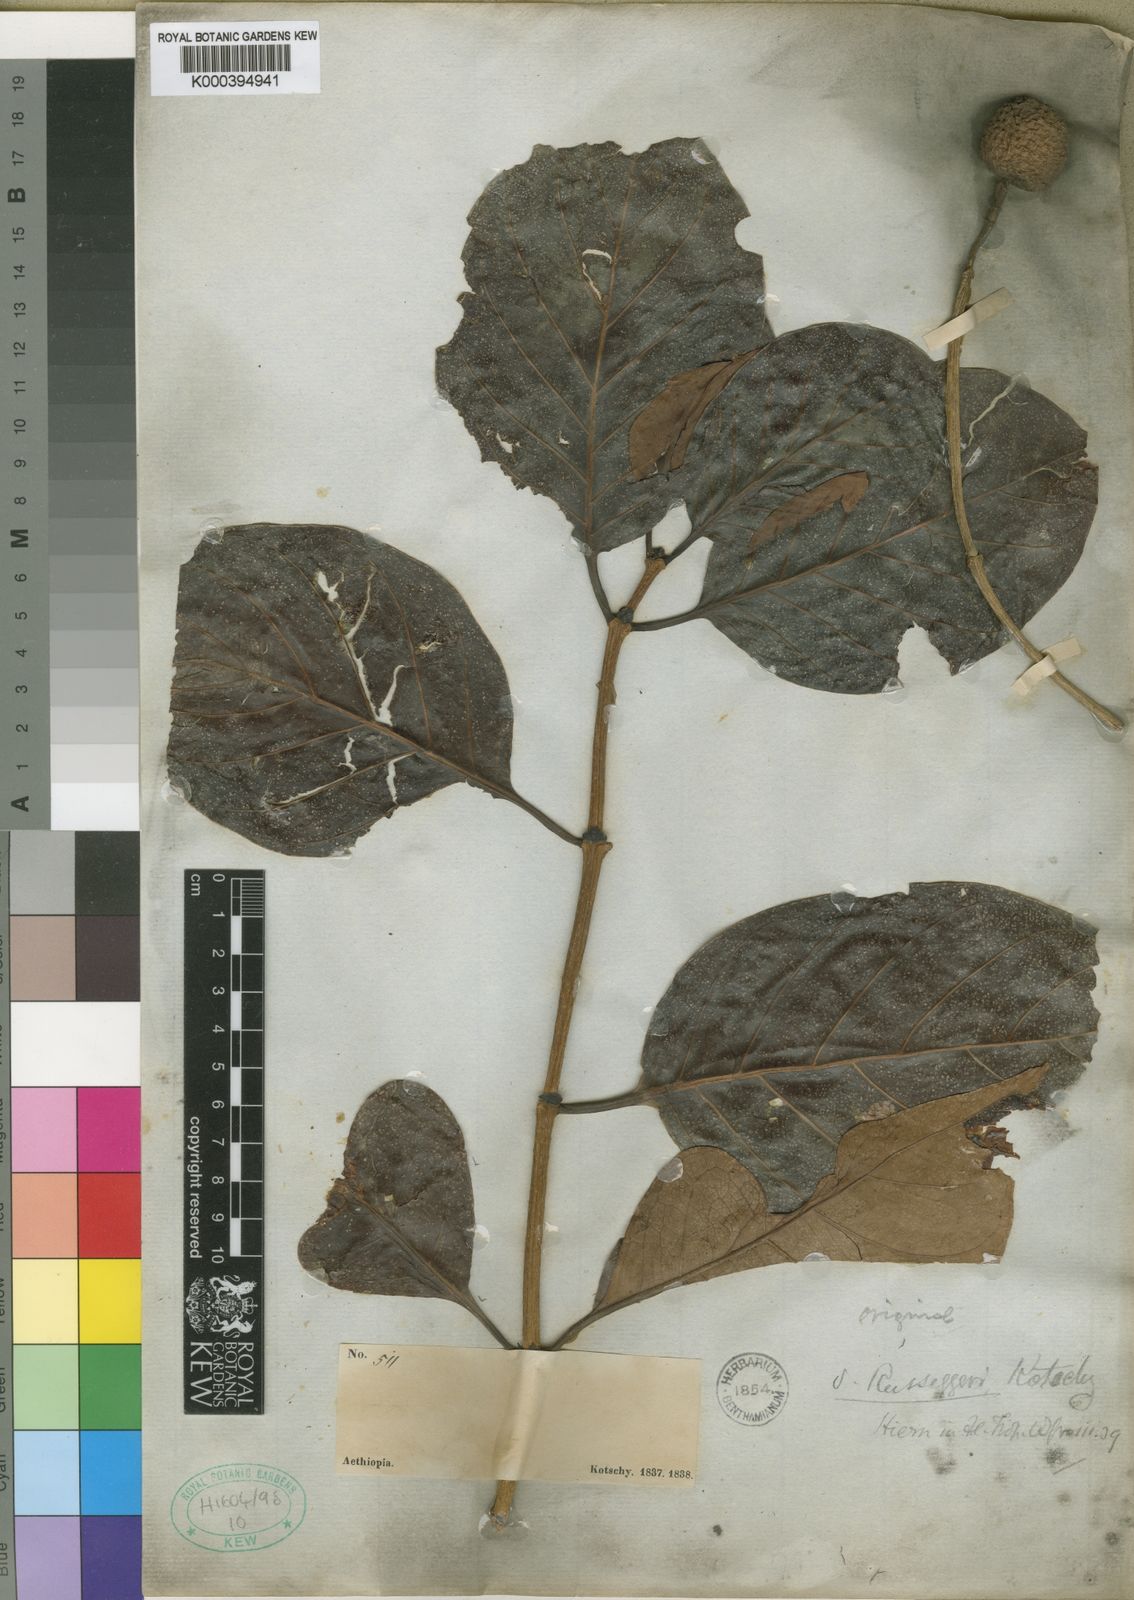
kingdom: Plantae
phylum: Tracheophyta
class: Magnoliopsida
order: Gentianales
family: Rubiaceae
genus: Nauclea
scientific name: Nauclea latifolia
